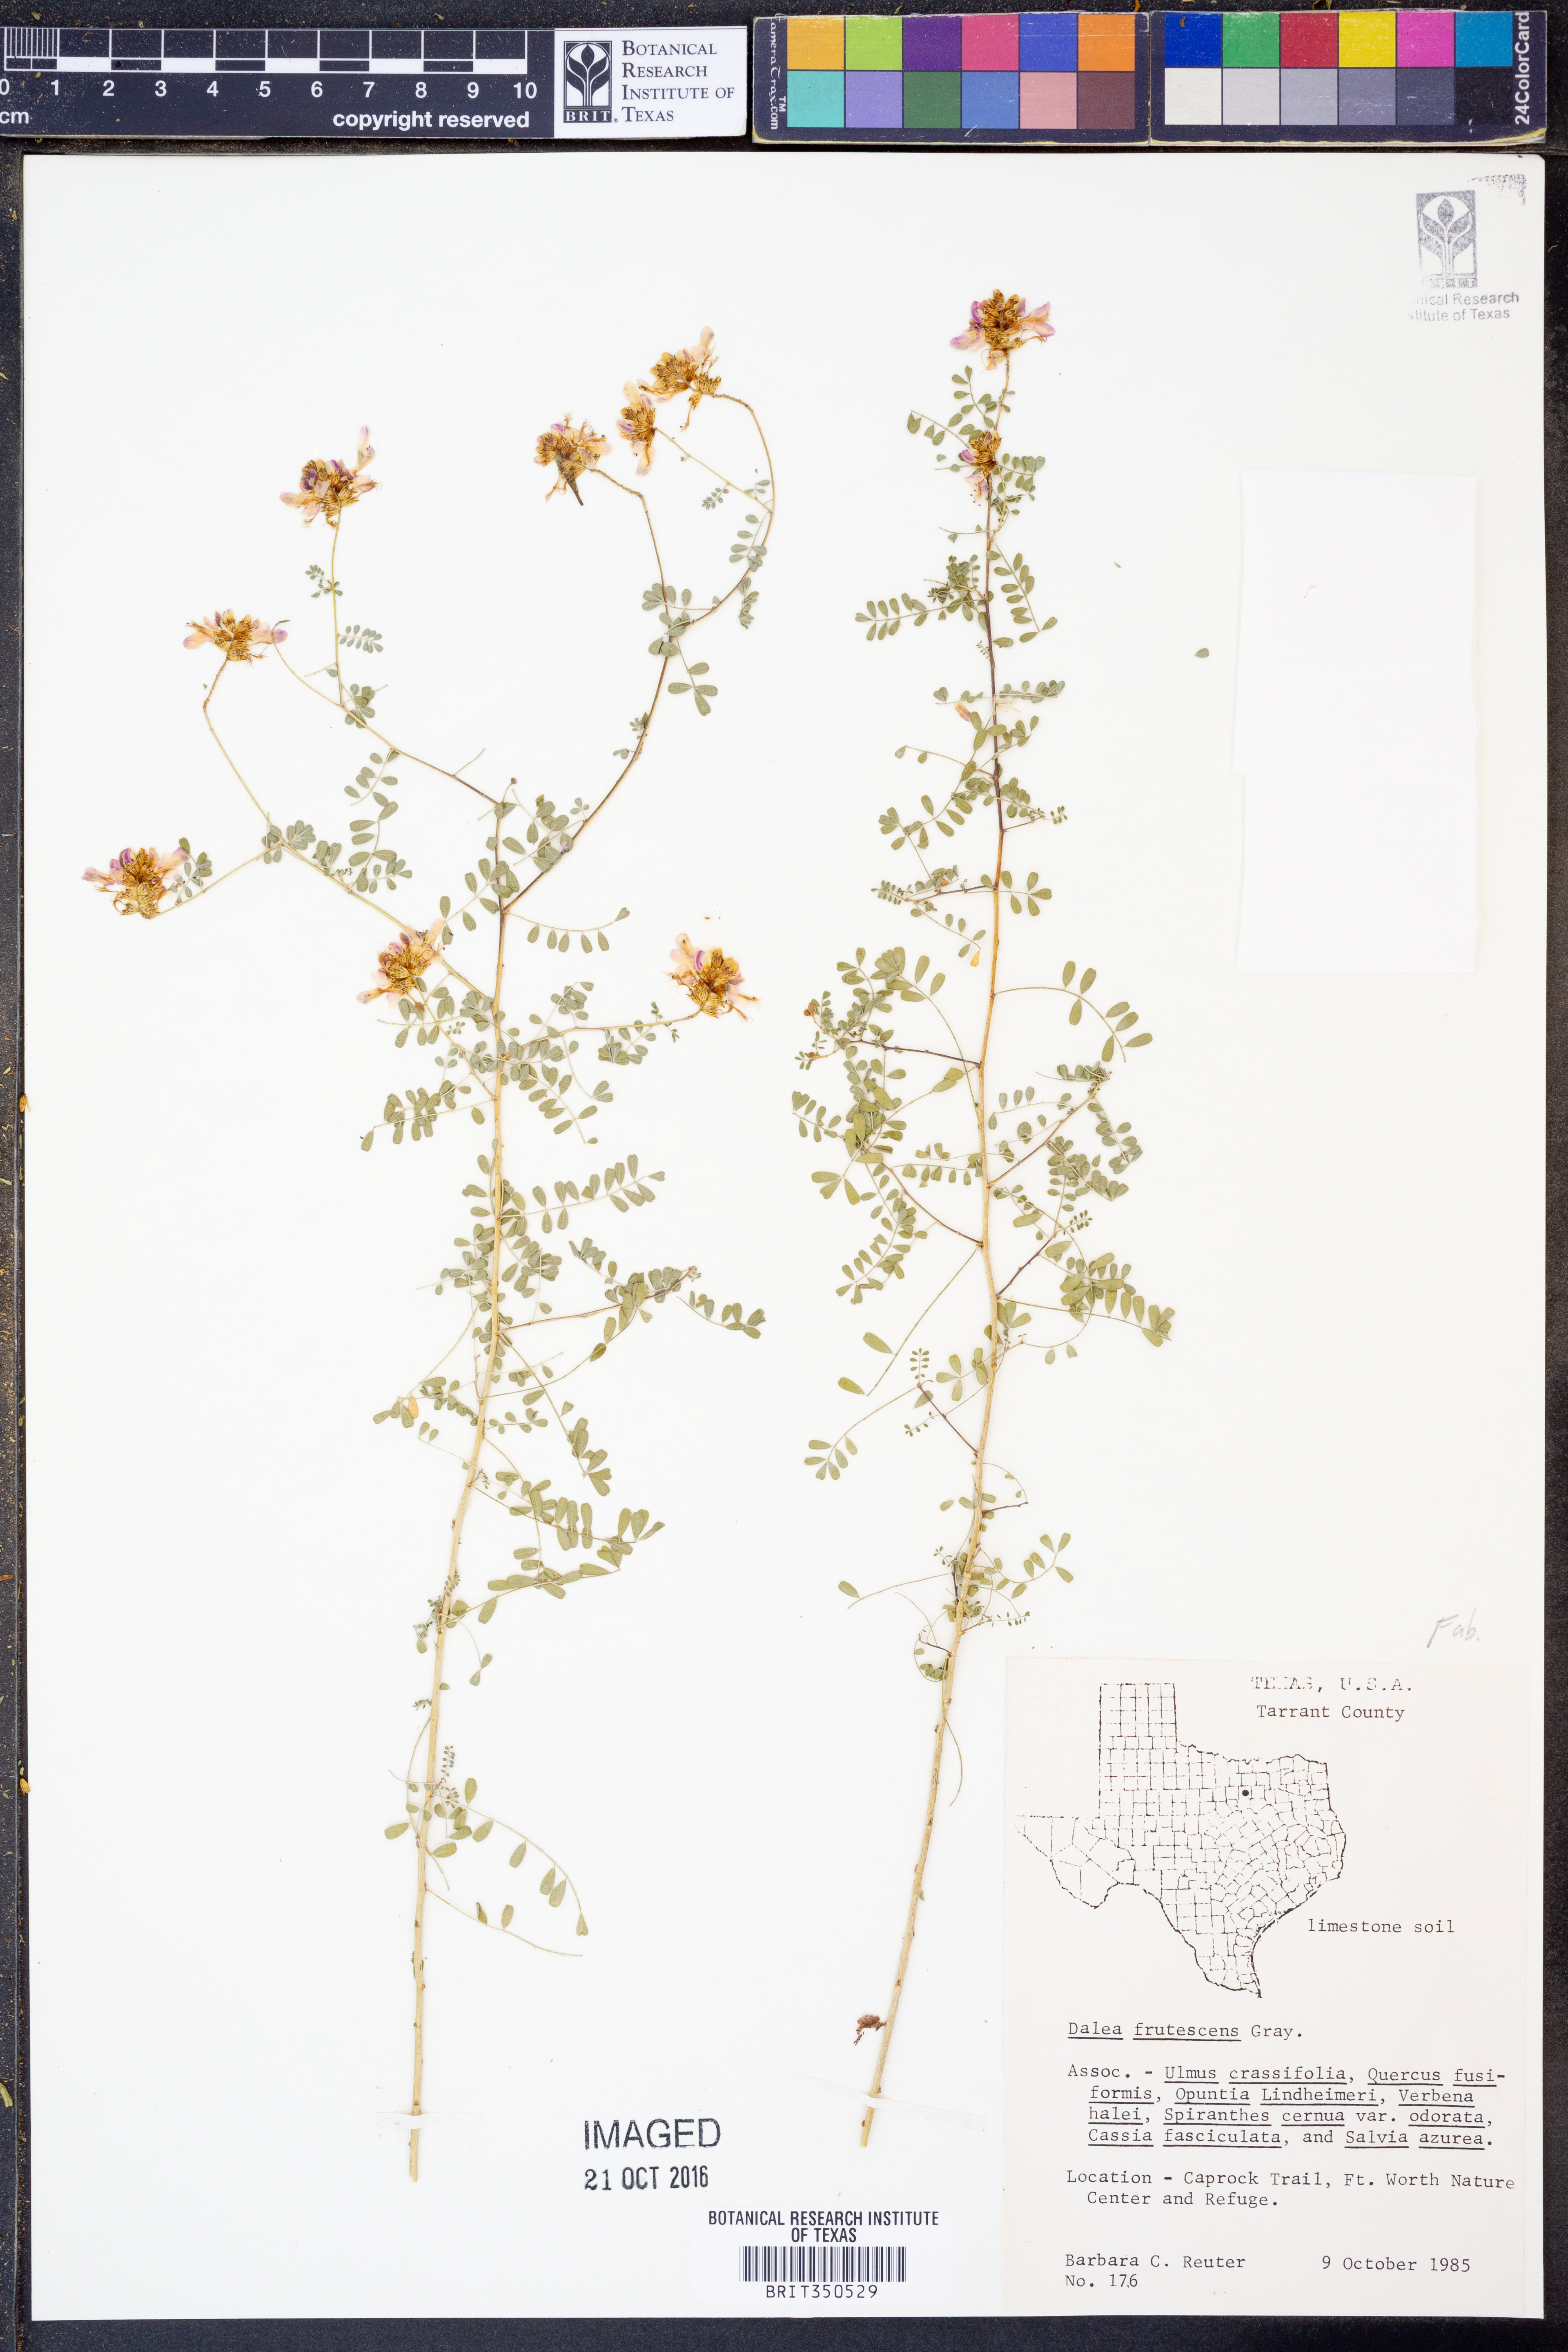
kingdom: Plantae
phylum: Tracheophyta
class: Magnoliopsida
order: Fabales
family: Fabaceae
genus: Dalea
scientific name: Dalea frutescens
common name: Black dalea
